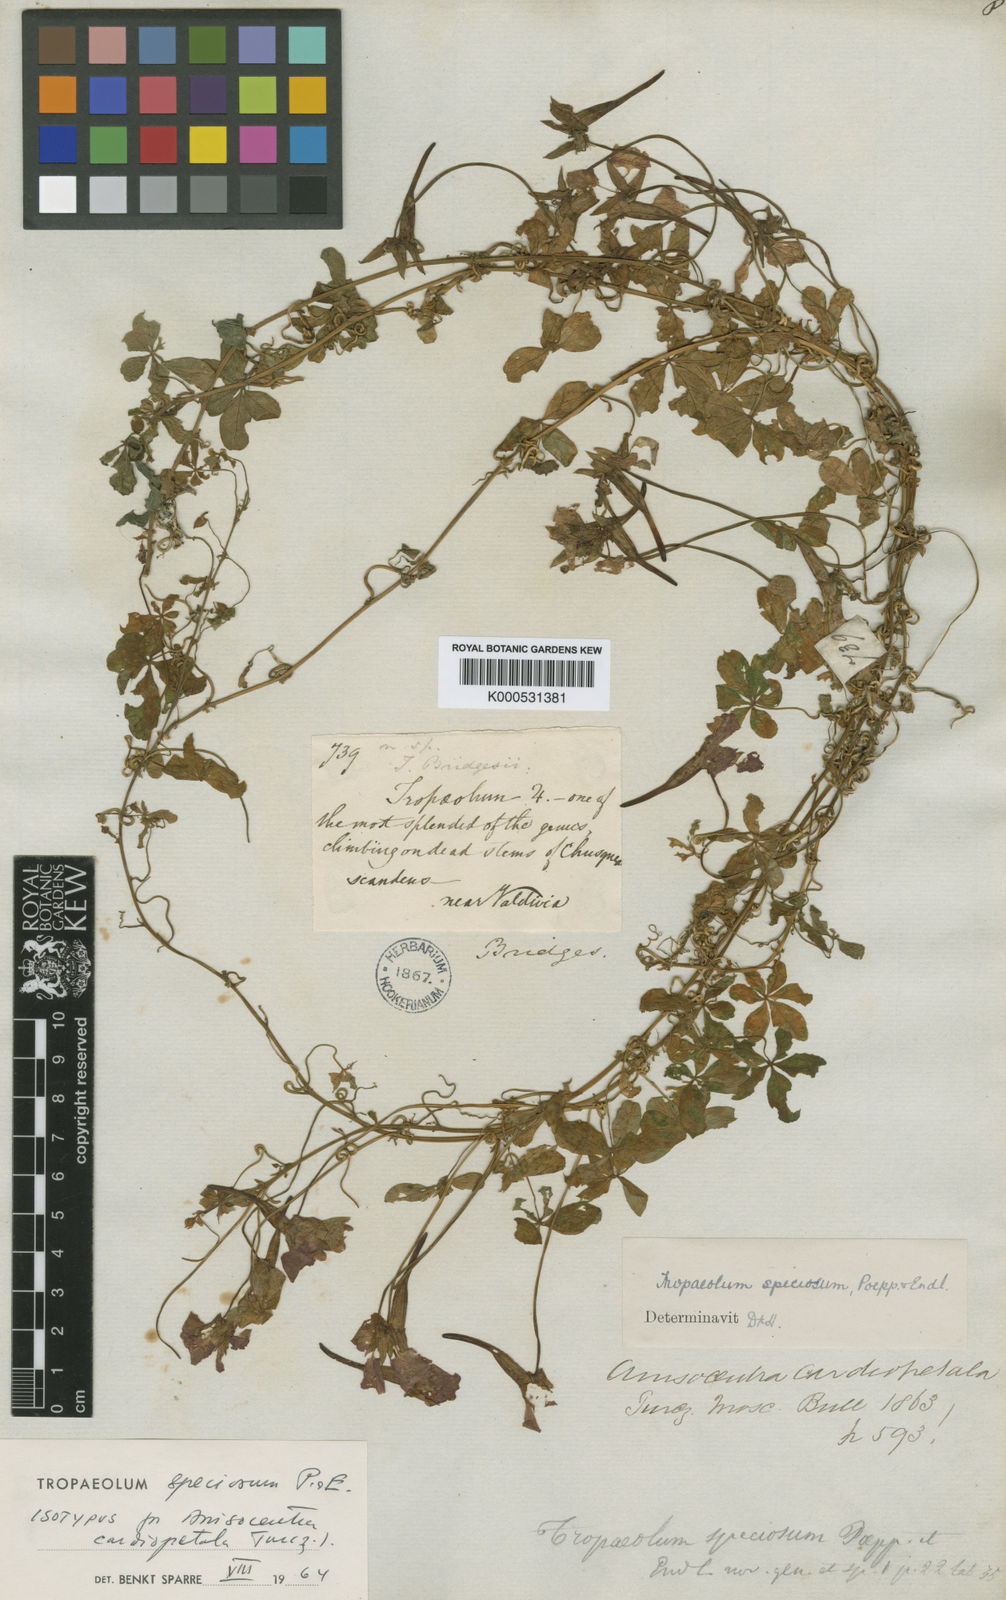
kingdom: Plantae
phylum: Tracheophyta
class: Magnoliopsida
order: Brassicales
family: Tropaeolaceae
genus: Tropaeolum
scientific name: Tropaeolum speciosum
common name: Flame nasturtium
